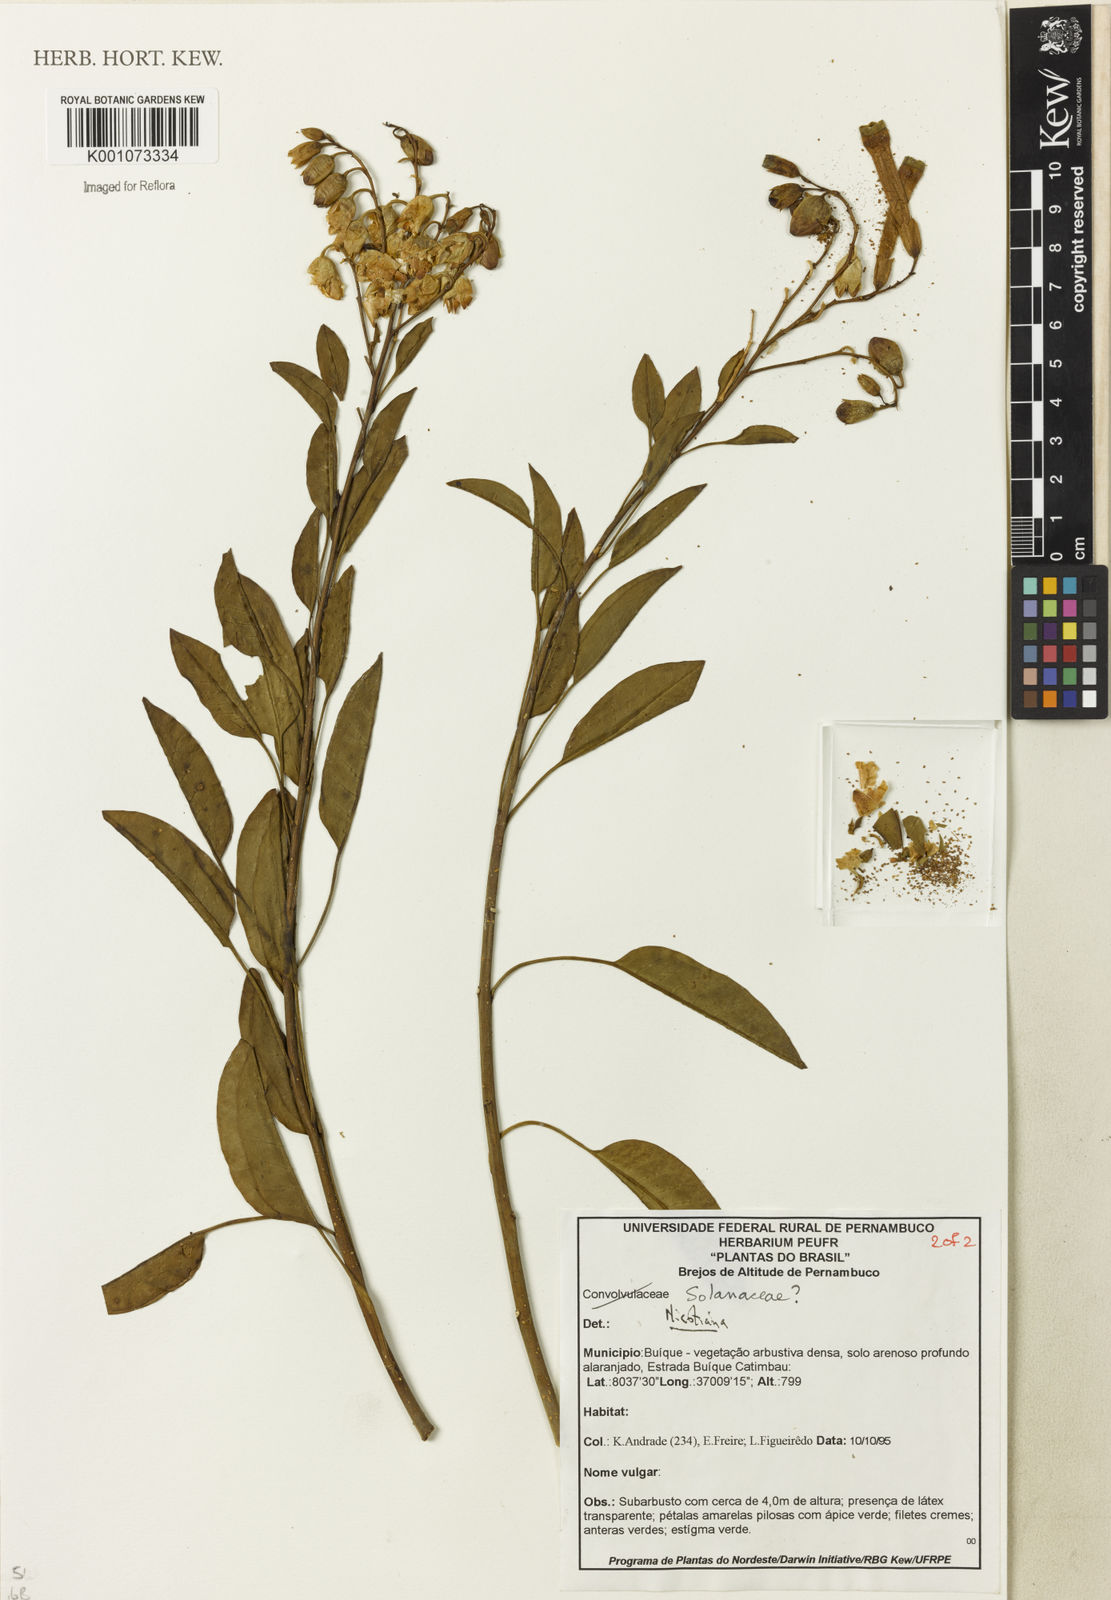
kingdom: Plantae
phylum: Tracheophyta
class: Magnoliopsida
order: Solanales
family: Solanaceae
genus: Nicotiana
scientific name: Nicotiana
